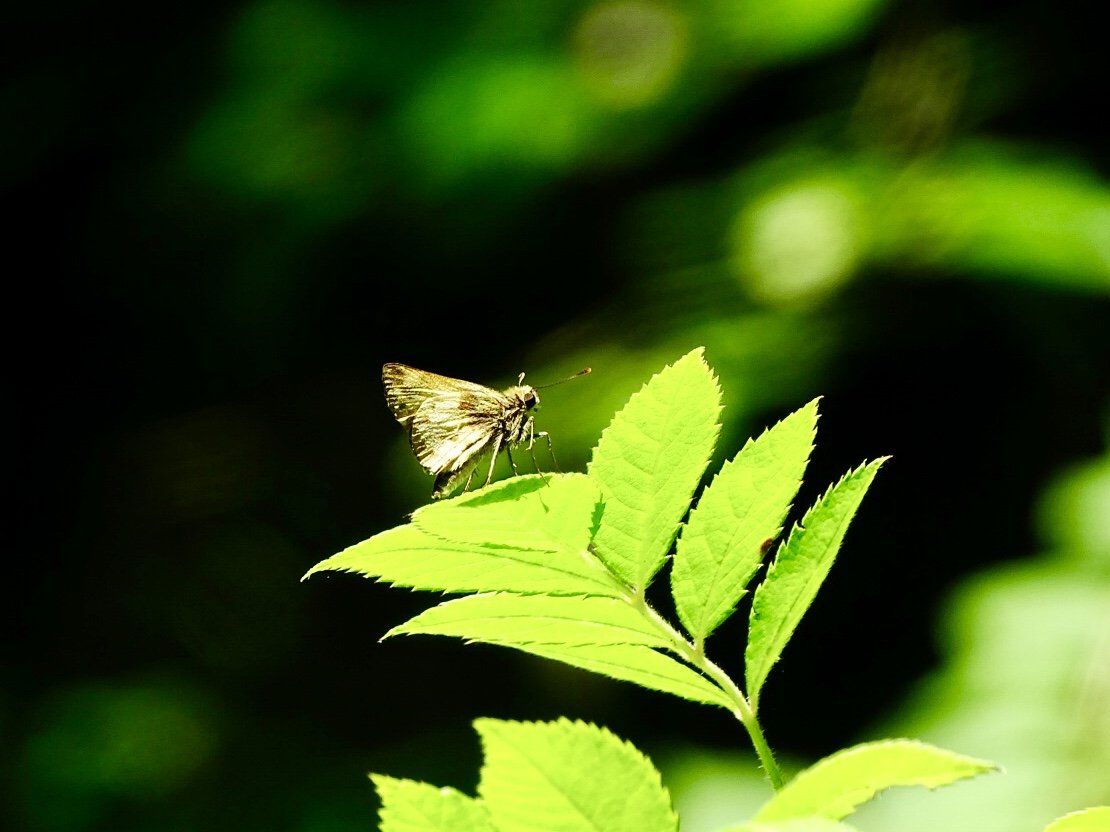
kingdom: Animalia
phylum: Arthropoda
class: Insecta
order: Lepidoptera
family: Hesperiidae
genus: Lon
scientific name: Lon zabulon
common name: Zabulon Skipper
